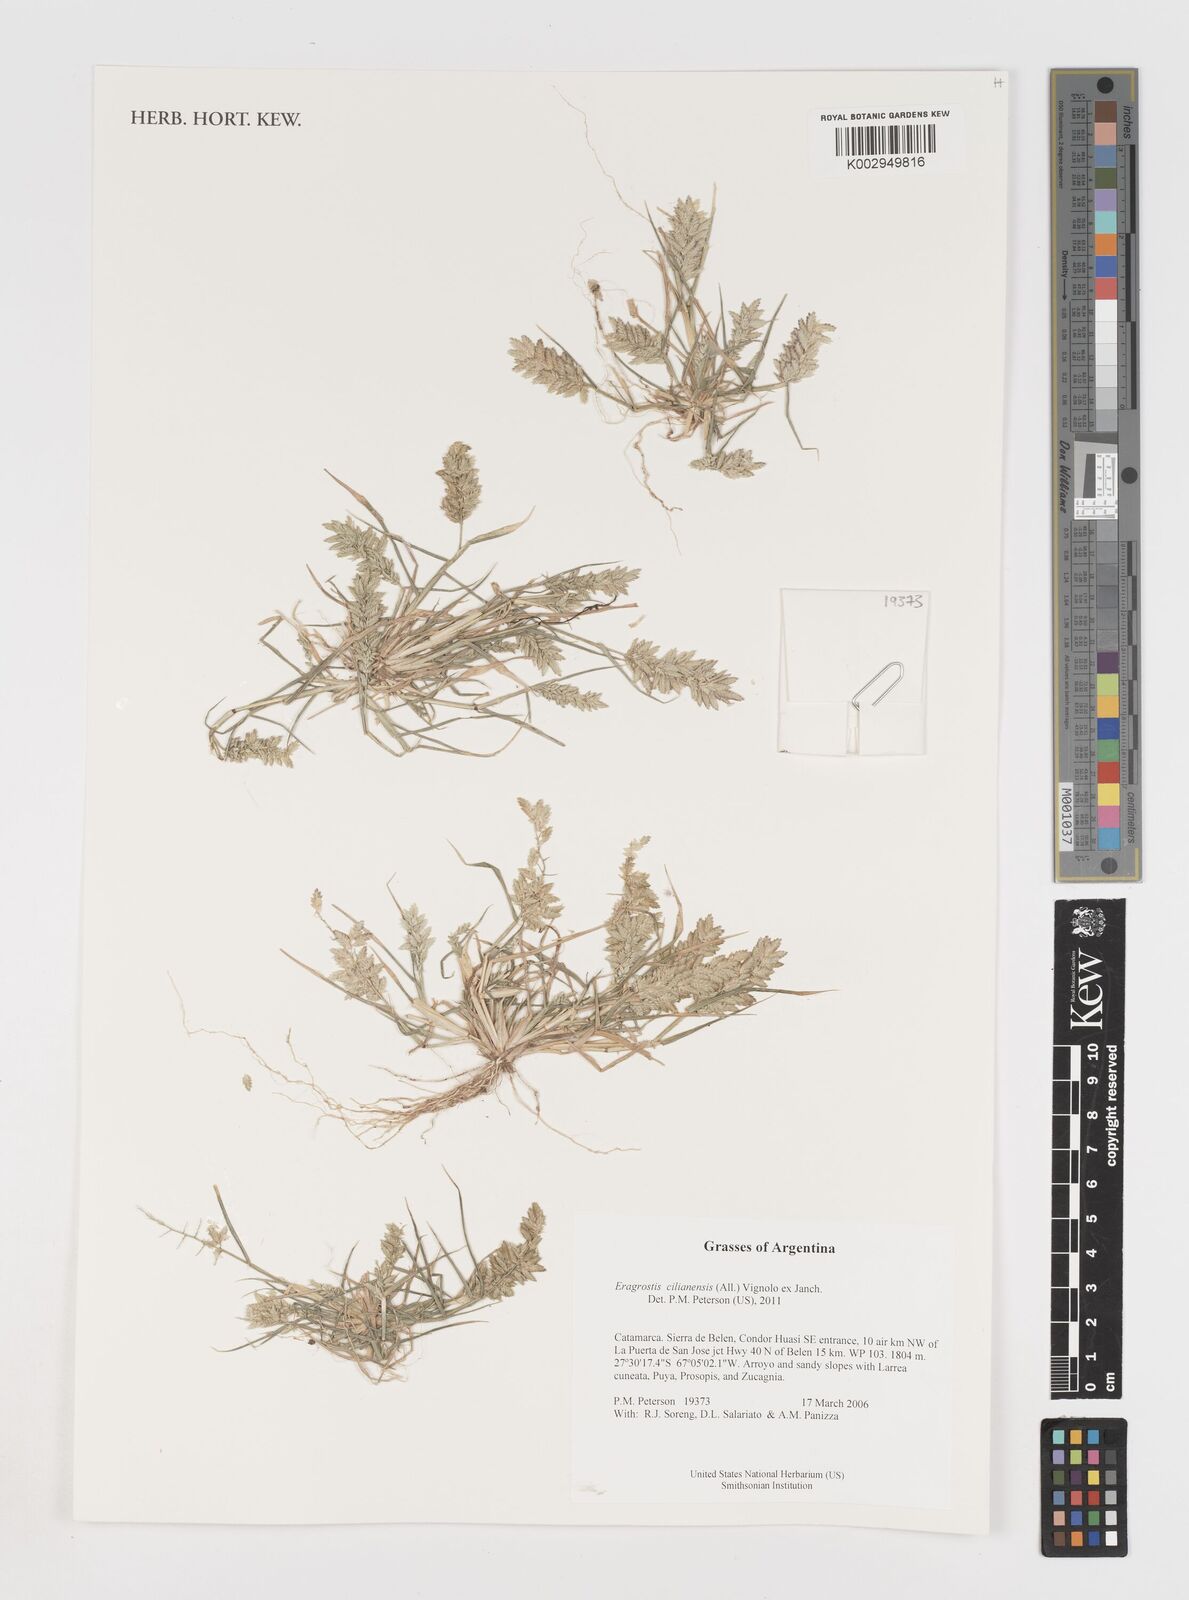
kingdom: Plantae
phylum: Tracheophyta
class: Liliopsida
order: Poales
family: Poaceae
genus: Eragrostis
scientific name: Eragrostis cilianensis
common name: Stinkgrass
